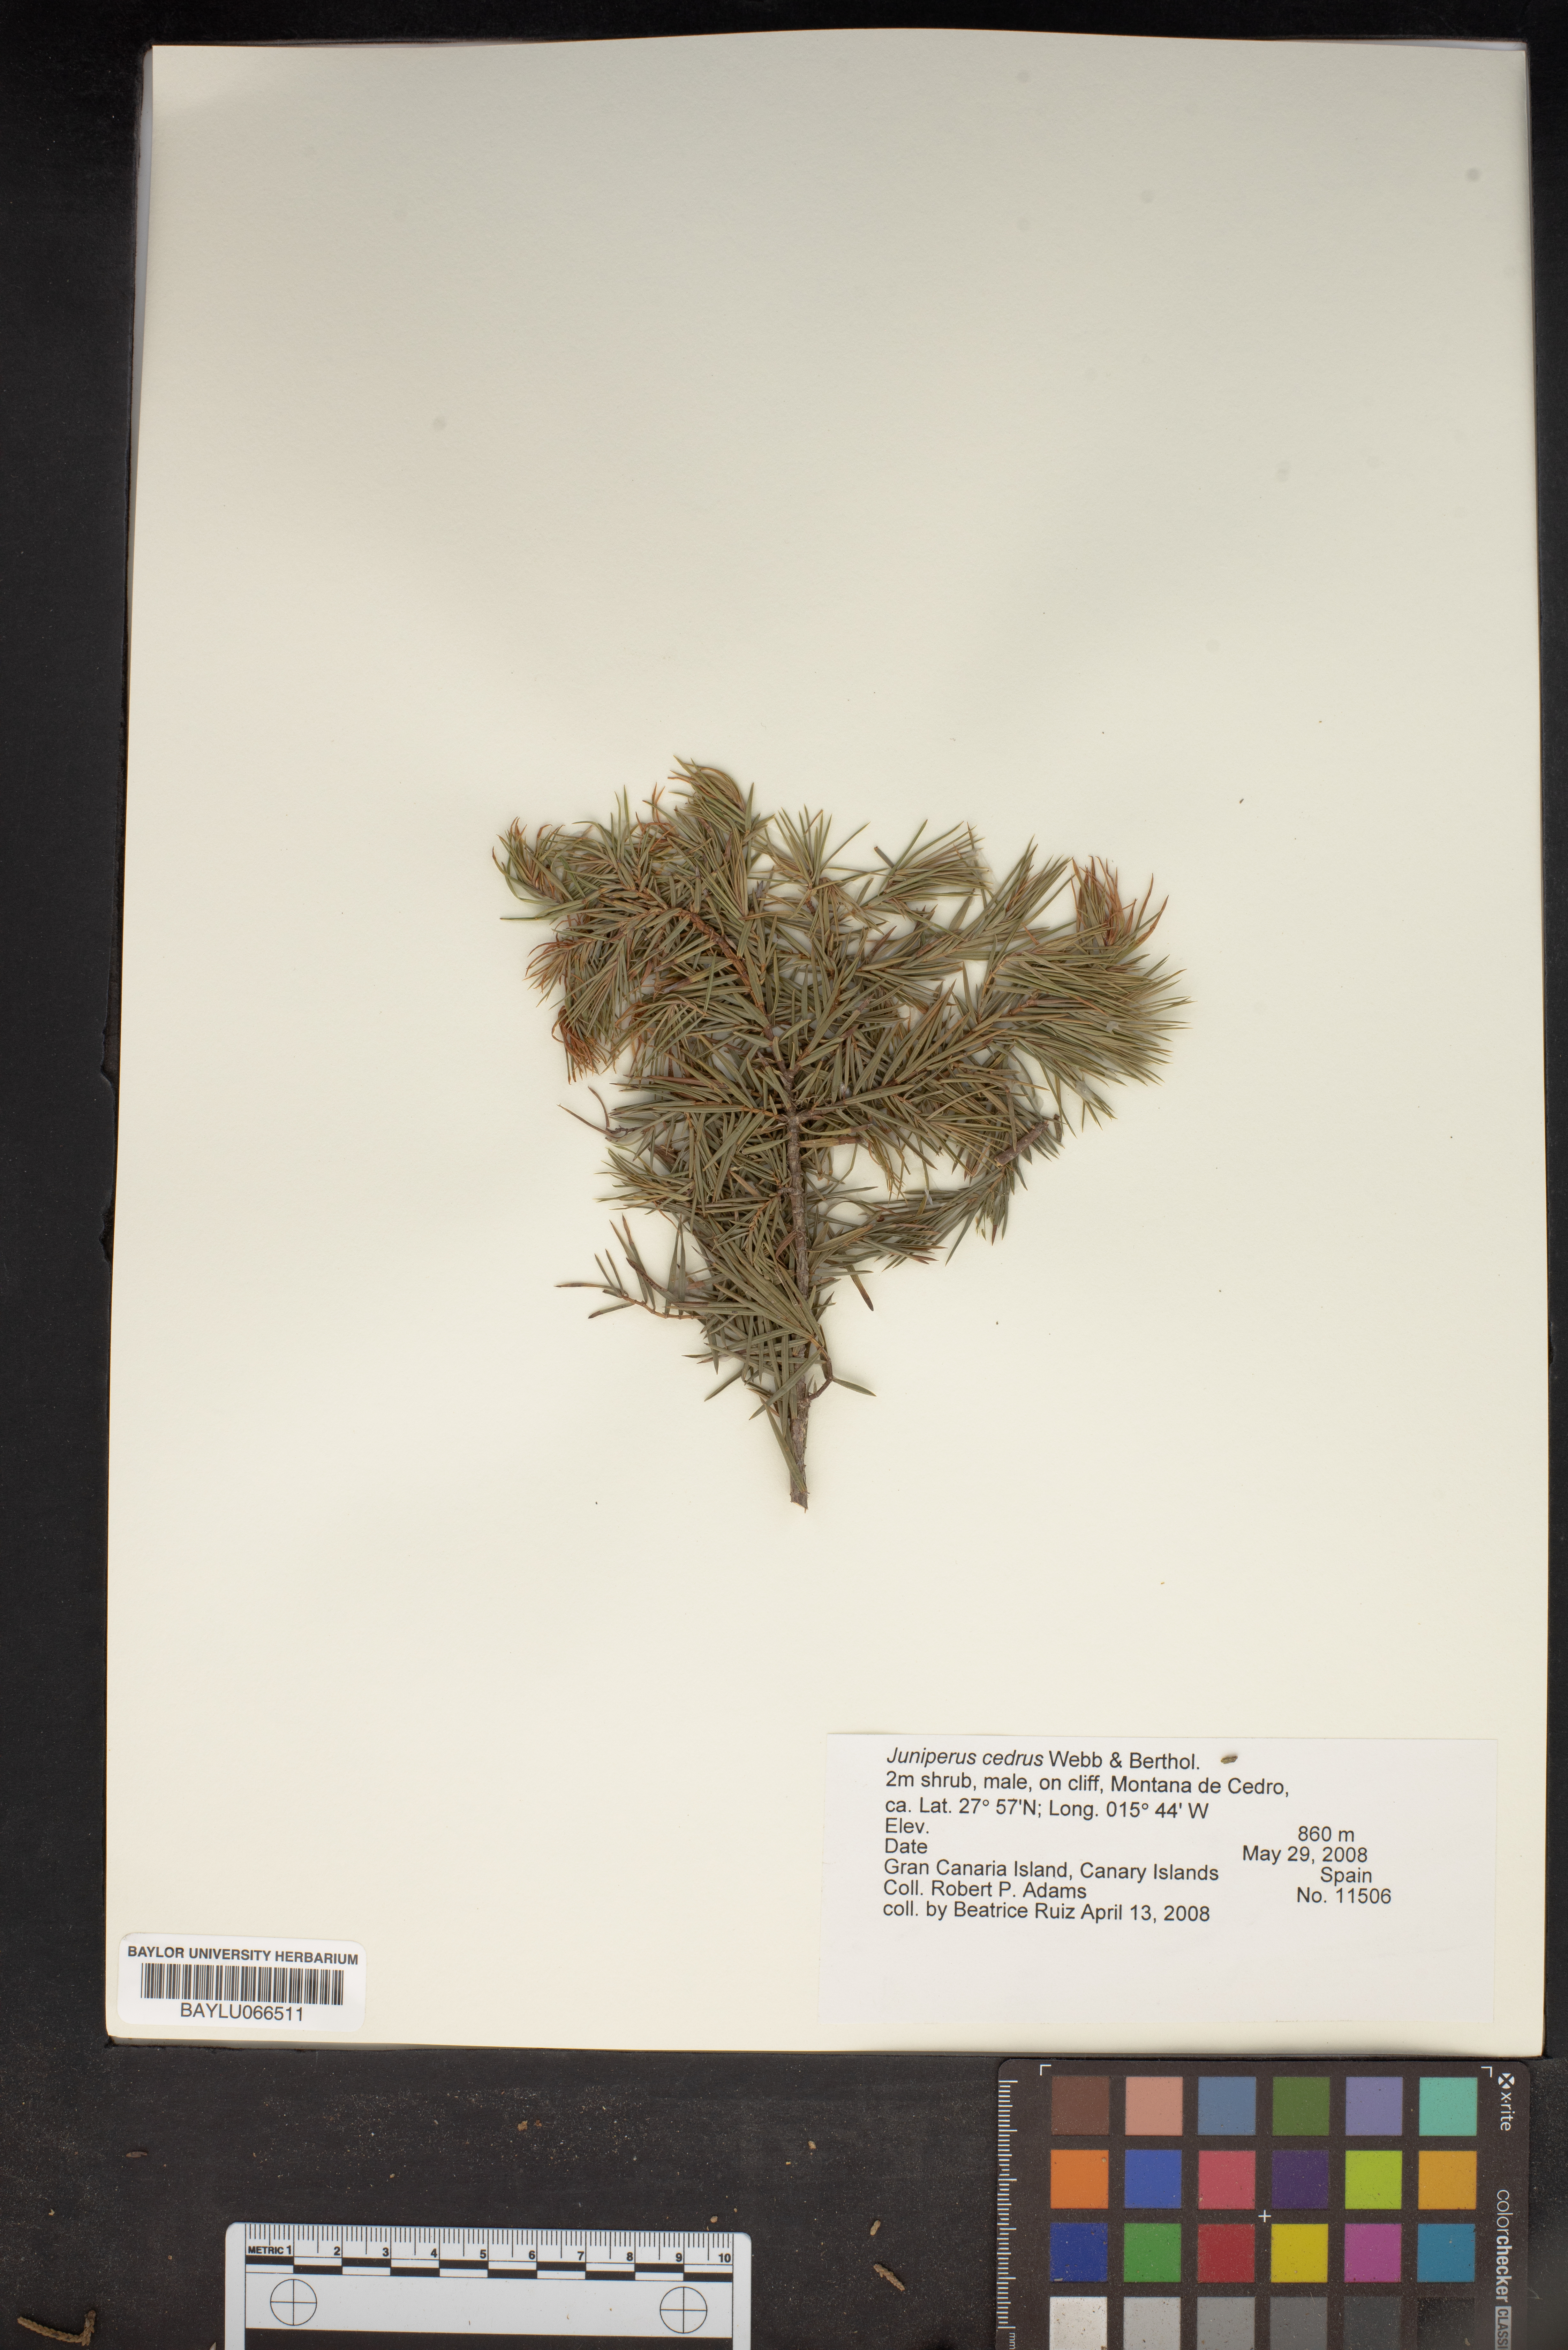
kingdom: Plantae
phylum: Tracheophyta
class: Pinopsida
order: Pinales
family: Cupressaceae
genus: Juniperus
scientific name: Juniperus cedrus
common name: Canary islands juniper
